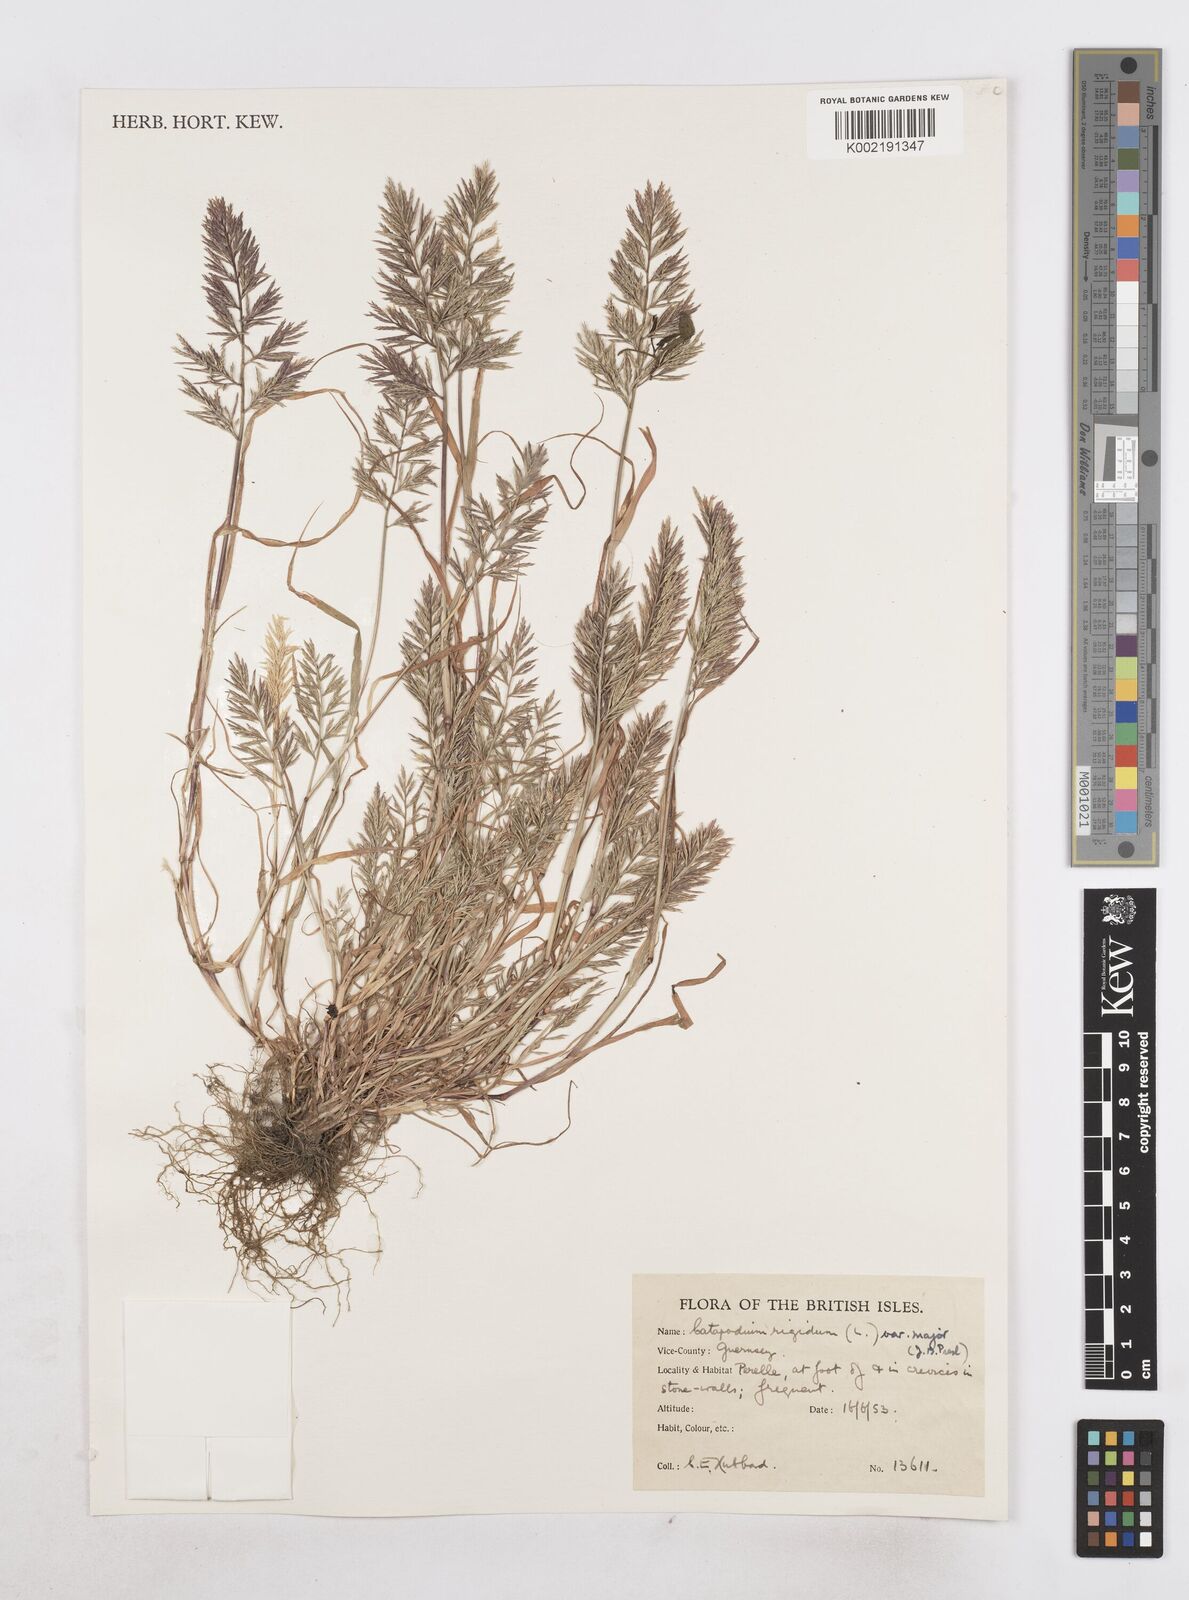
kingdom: Plantae
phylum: Tracheophyta
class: Liliopsida
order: Poales
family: Poaceae
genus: Catapodium
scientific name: Catapodium rigidum
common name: Fern-grass
